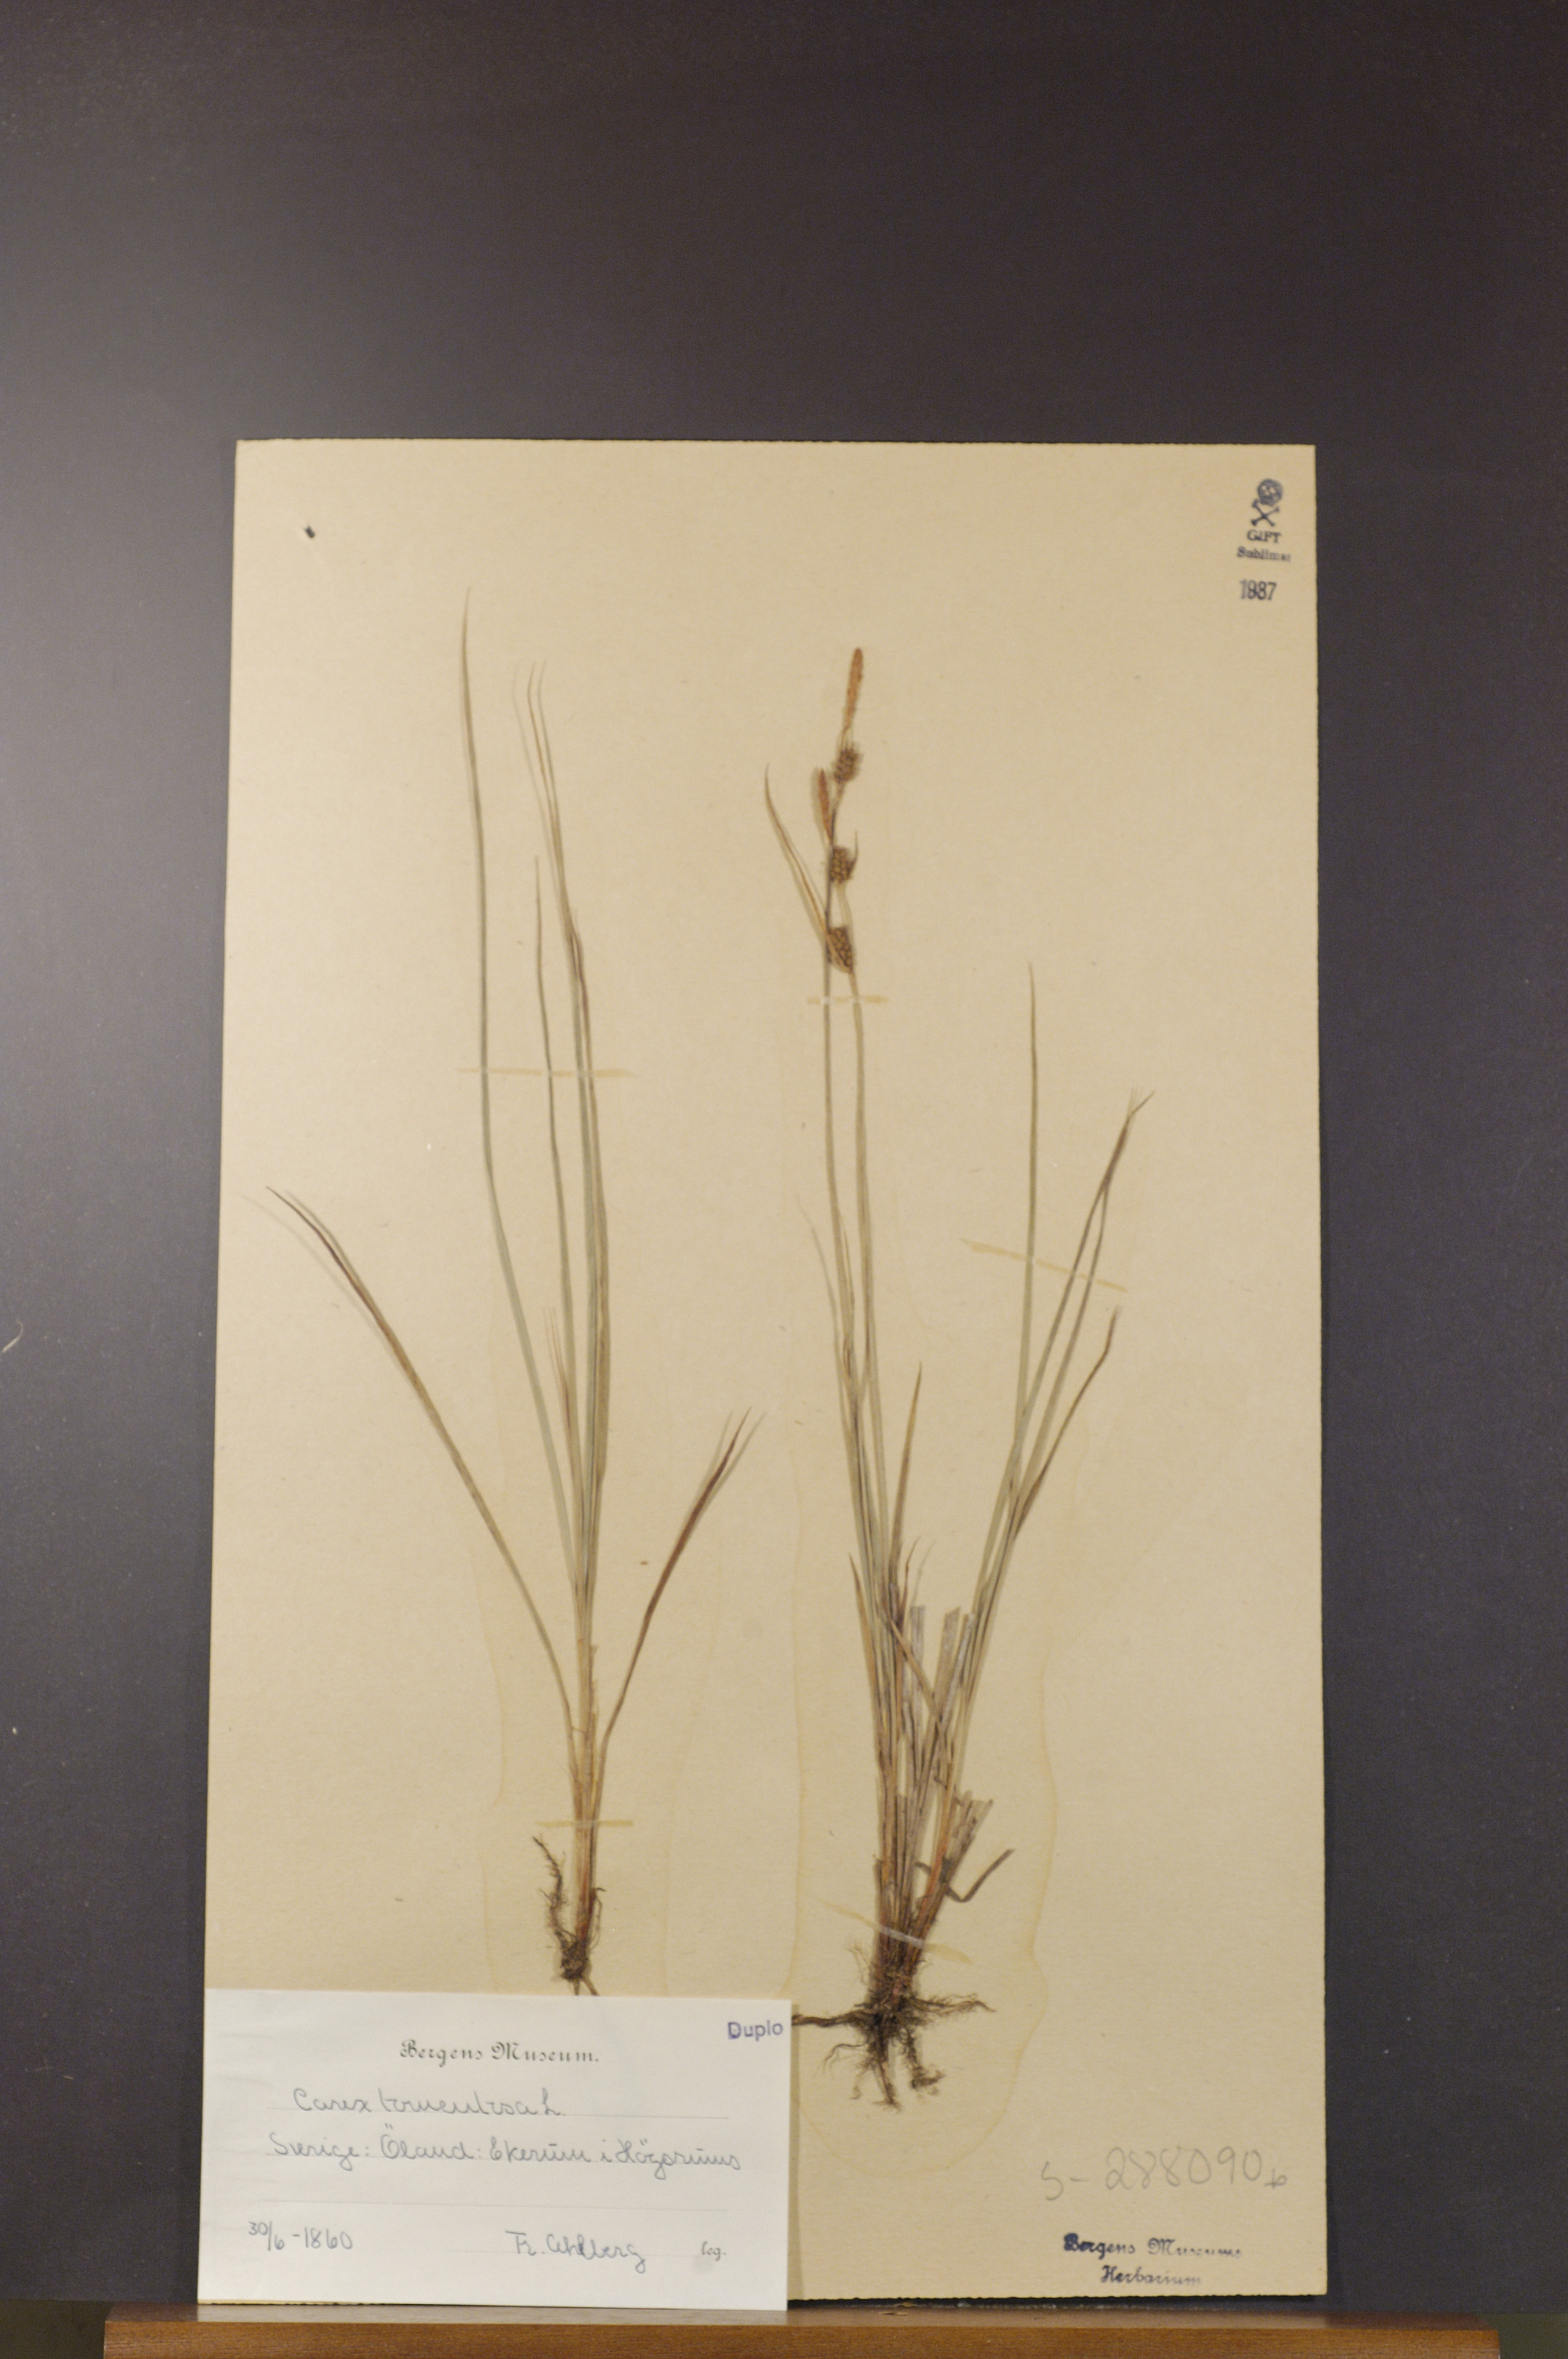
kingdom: Plantae
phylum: Tracheophyta
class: Liliopsida
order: Poales
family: Cyperaceae
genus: Carex
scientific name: Carex montana
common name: Soft-leaved sedge
